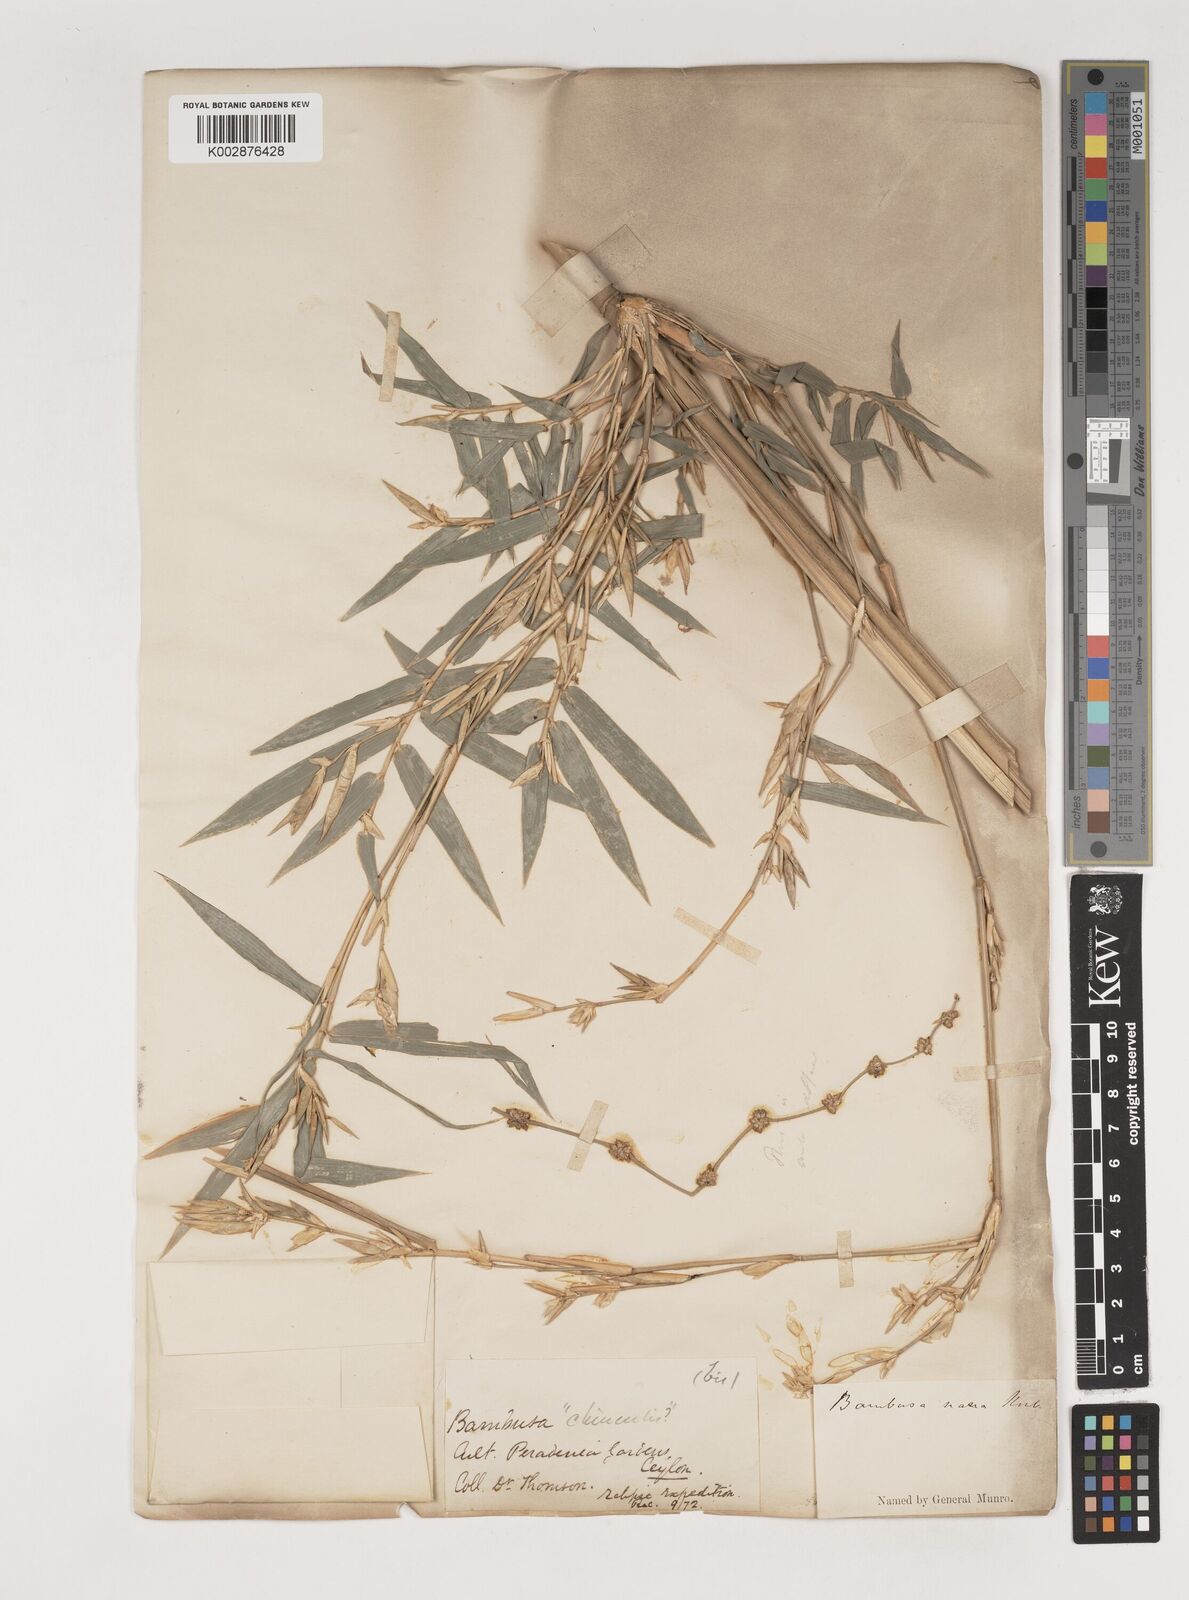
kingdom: Plantae
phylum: Tracheophyta
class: Liliopsida
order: Poales
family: Poaceae
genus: Bambusa
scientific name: Bambusa multiplex
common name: Hedge bamboo
